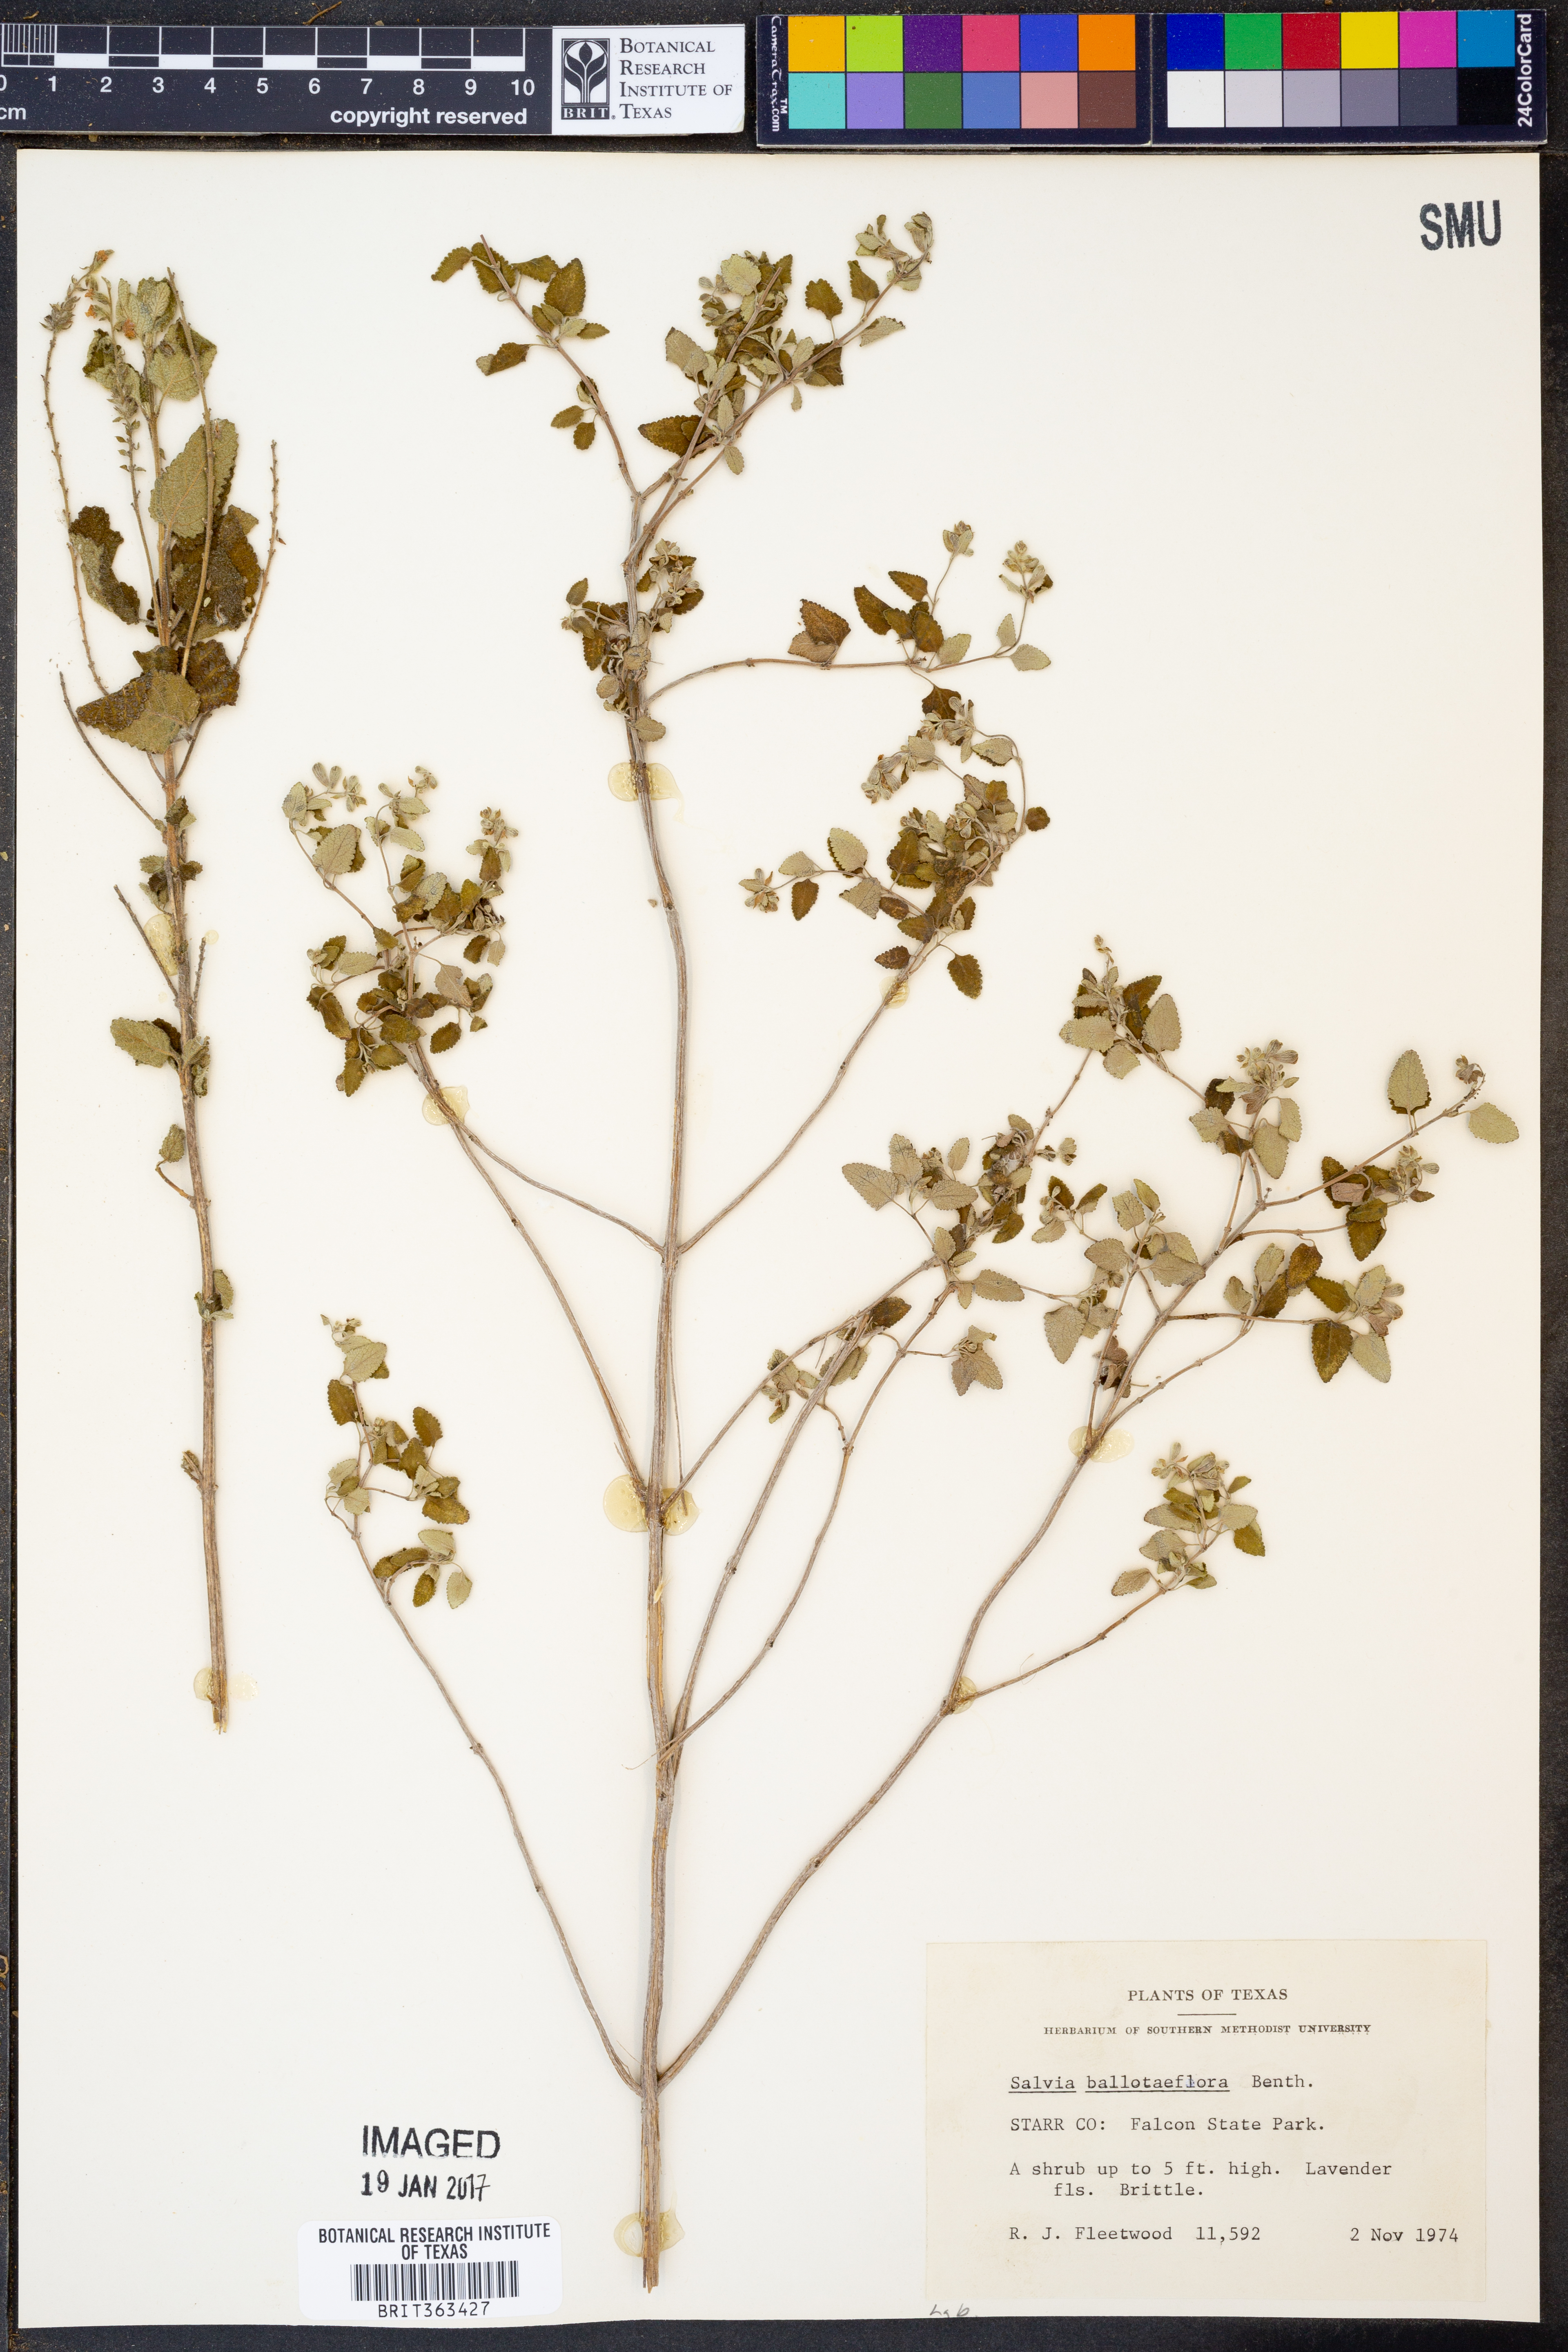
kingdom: Plantae
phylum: Tracheophyta
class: Magnoliopsida
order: Lamiales
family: Lamiaceae
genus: Salvia
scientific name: Salvia ballotiflora
